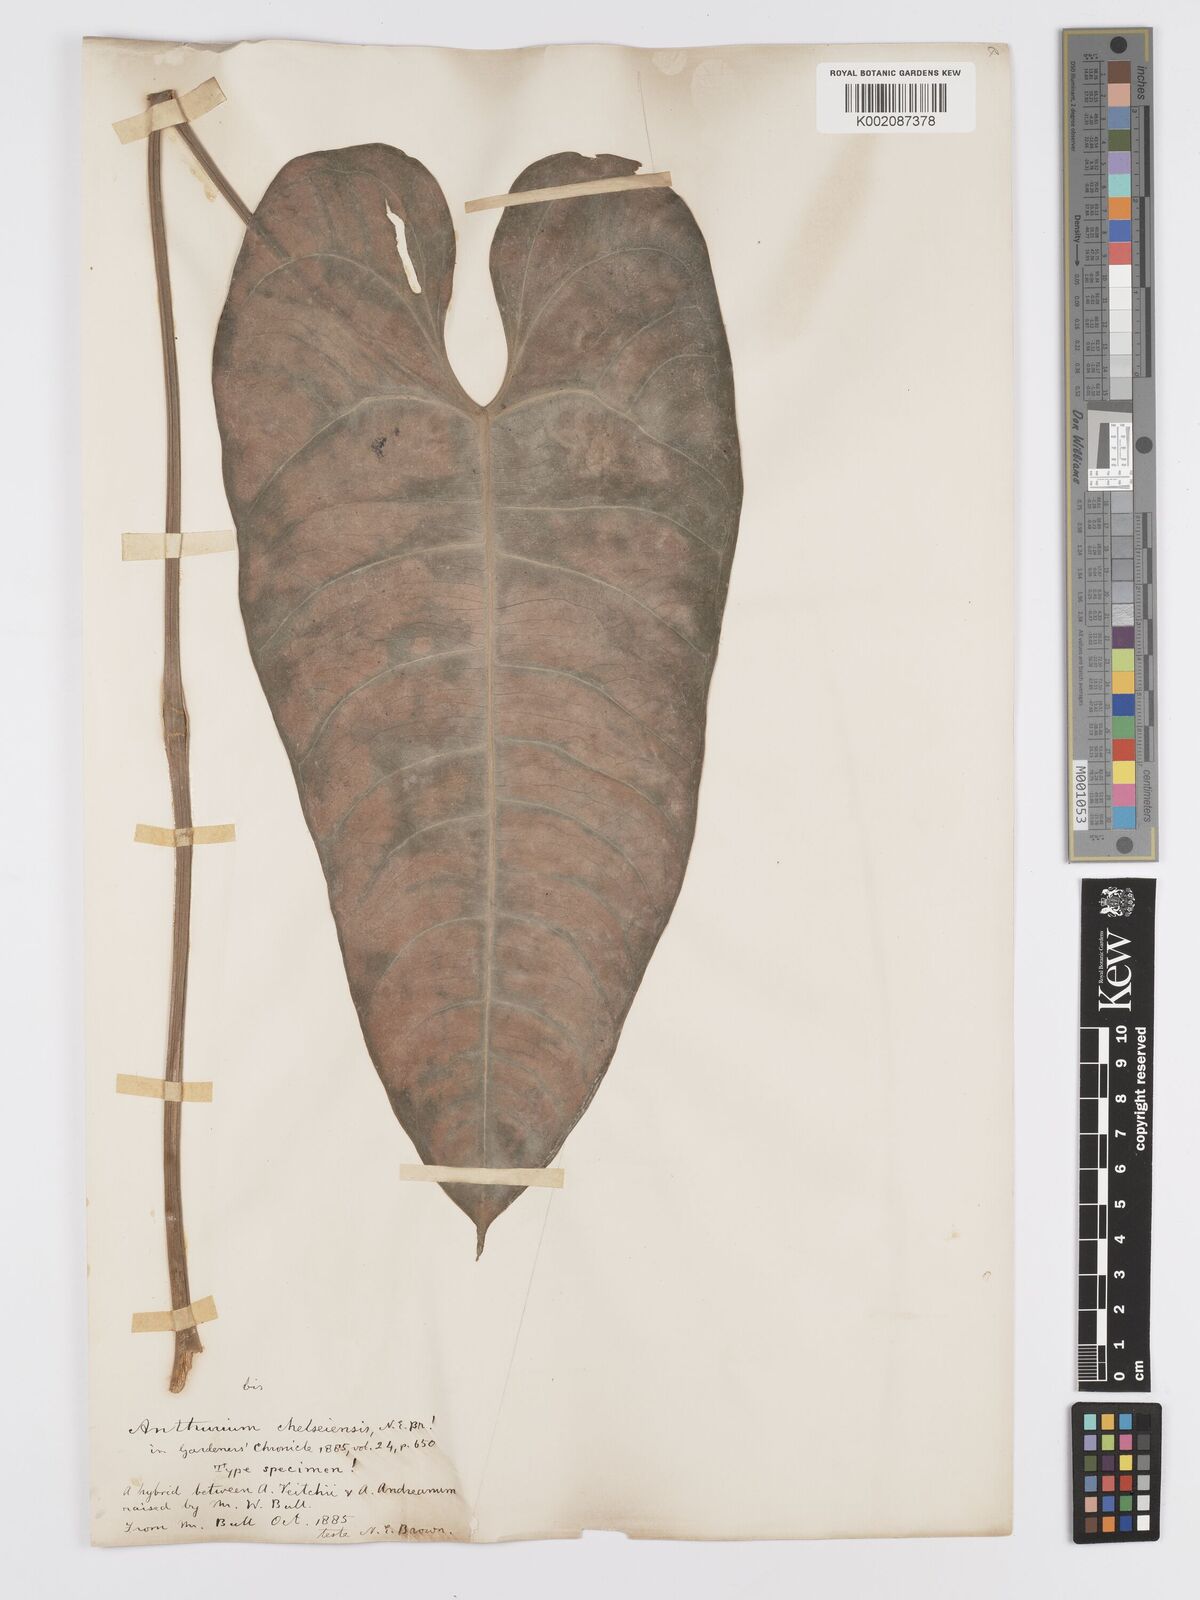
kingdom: Plantae
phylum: Tracheophyta
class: Liliopsida
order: Alismatales
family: Araceae
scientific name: Araceae
